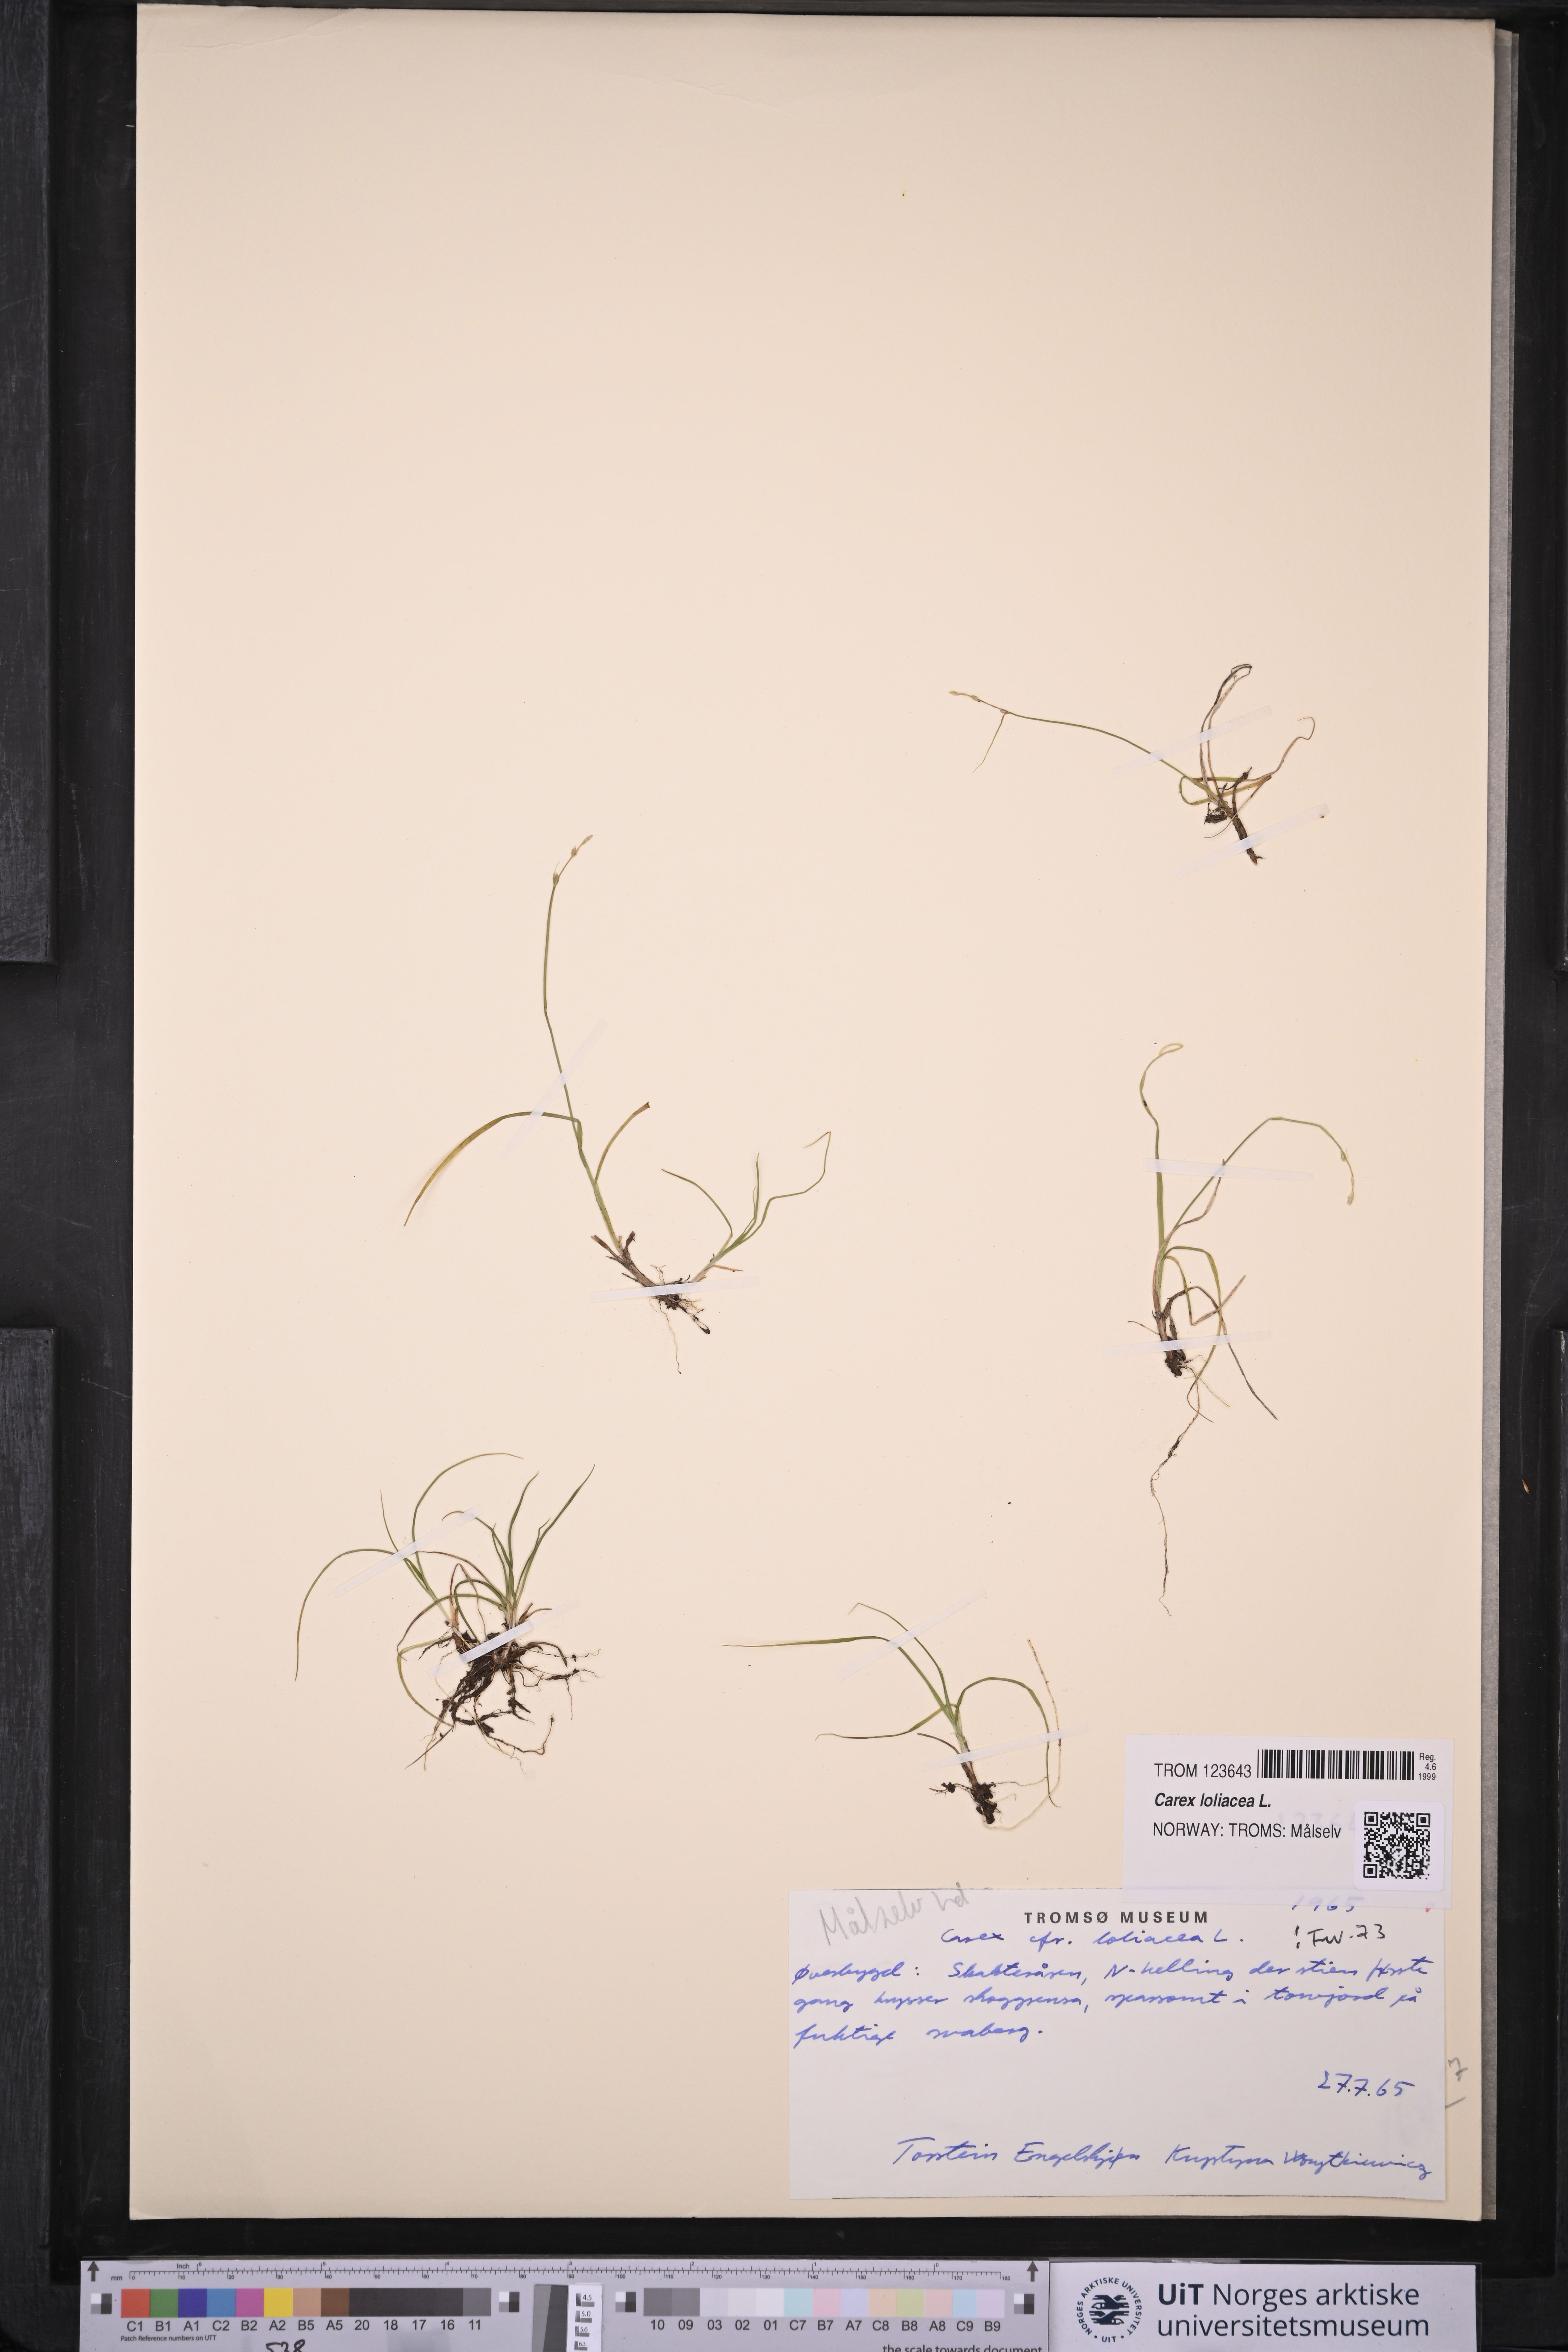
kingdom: Plantae
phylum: Tracheophyta
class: Liliopsida
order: Poales
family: Cyperaceae
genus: Carex
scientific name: Carex loliacea
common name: Ryegrass sedge
